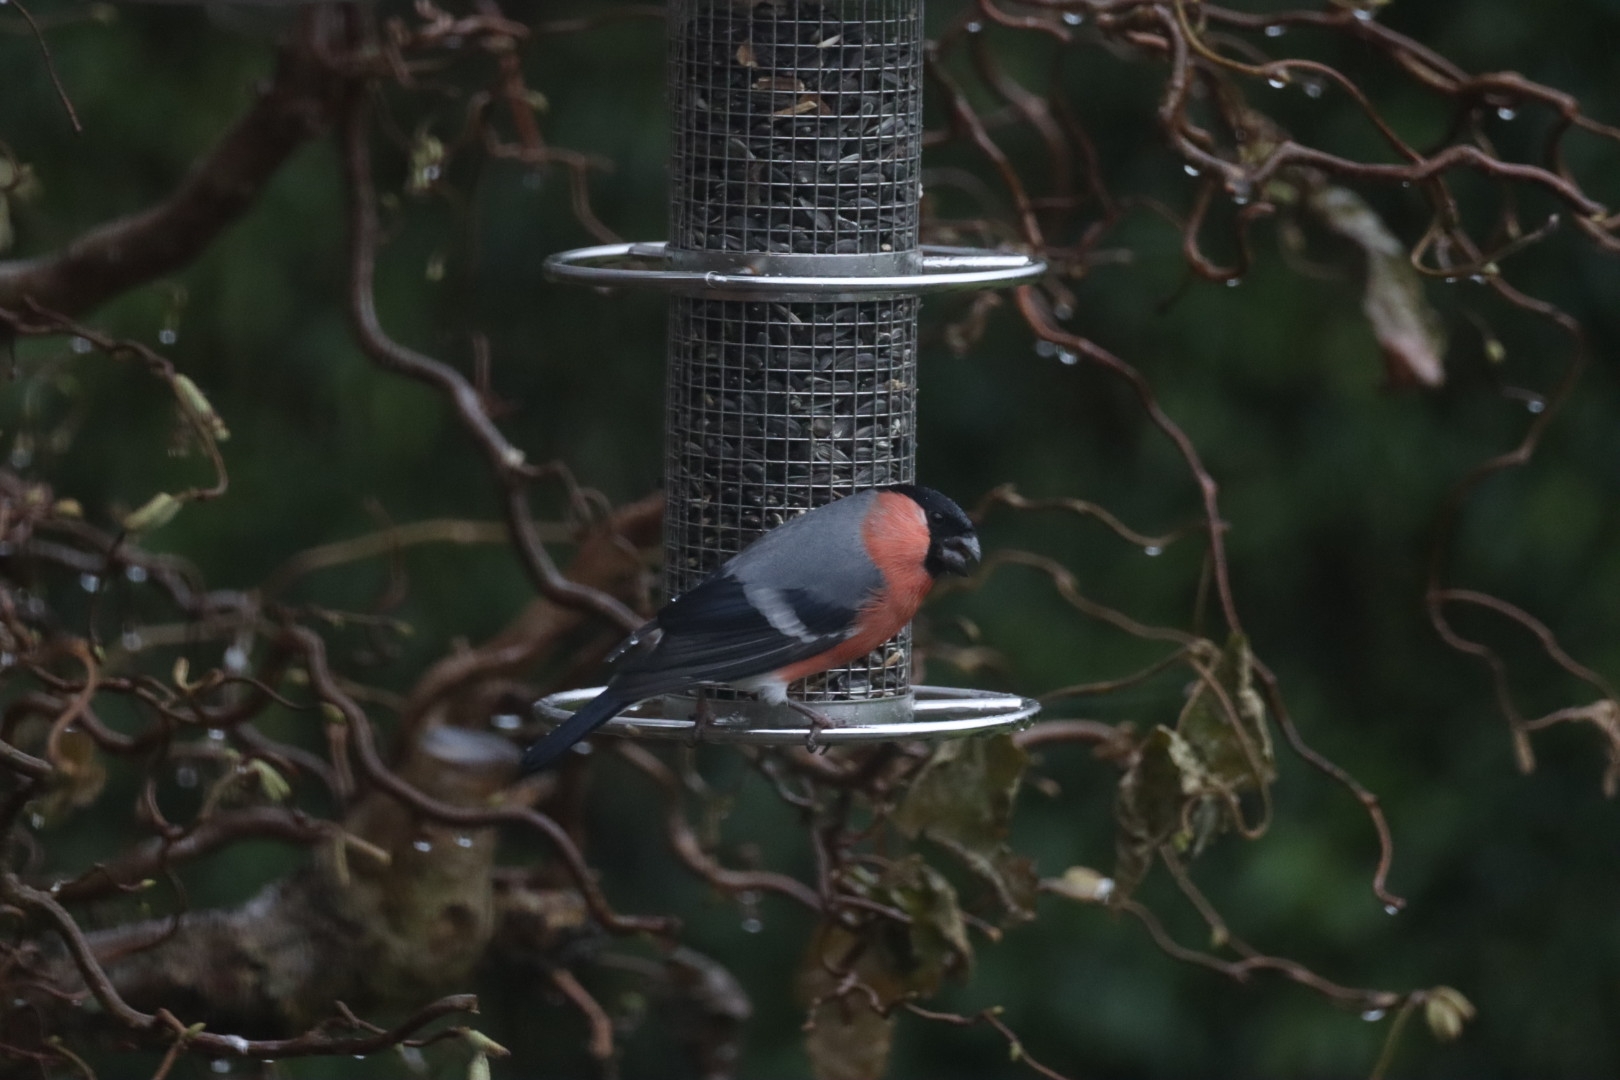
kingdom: Animalia
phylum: Chordata
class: Aves
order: Passeriformes
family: Fringillidae
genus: Pyrrhula
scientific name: Pyrrhula pyrrhula
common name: Dompap
